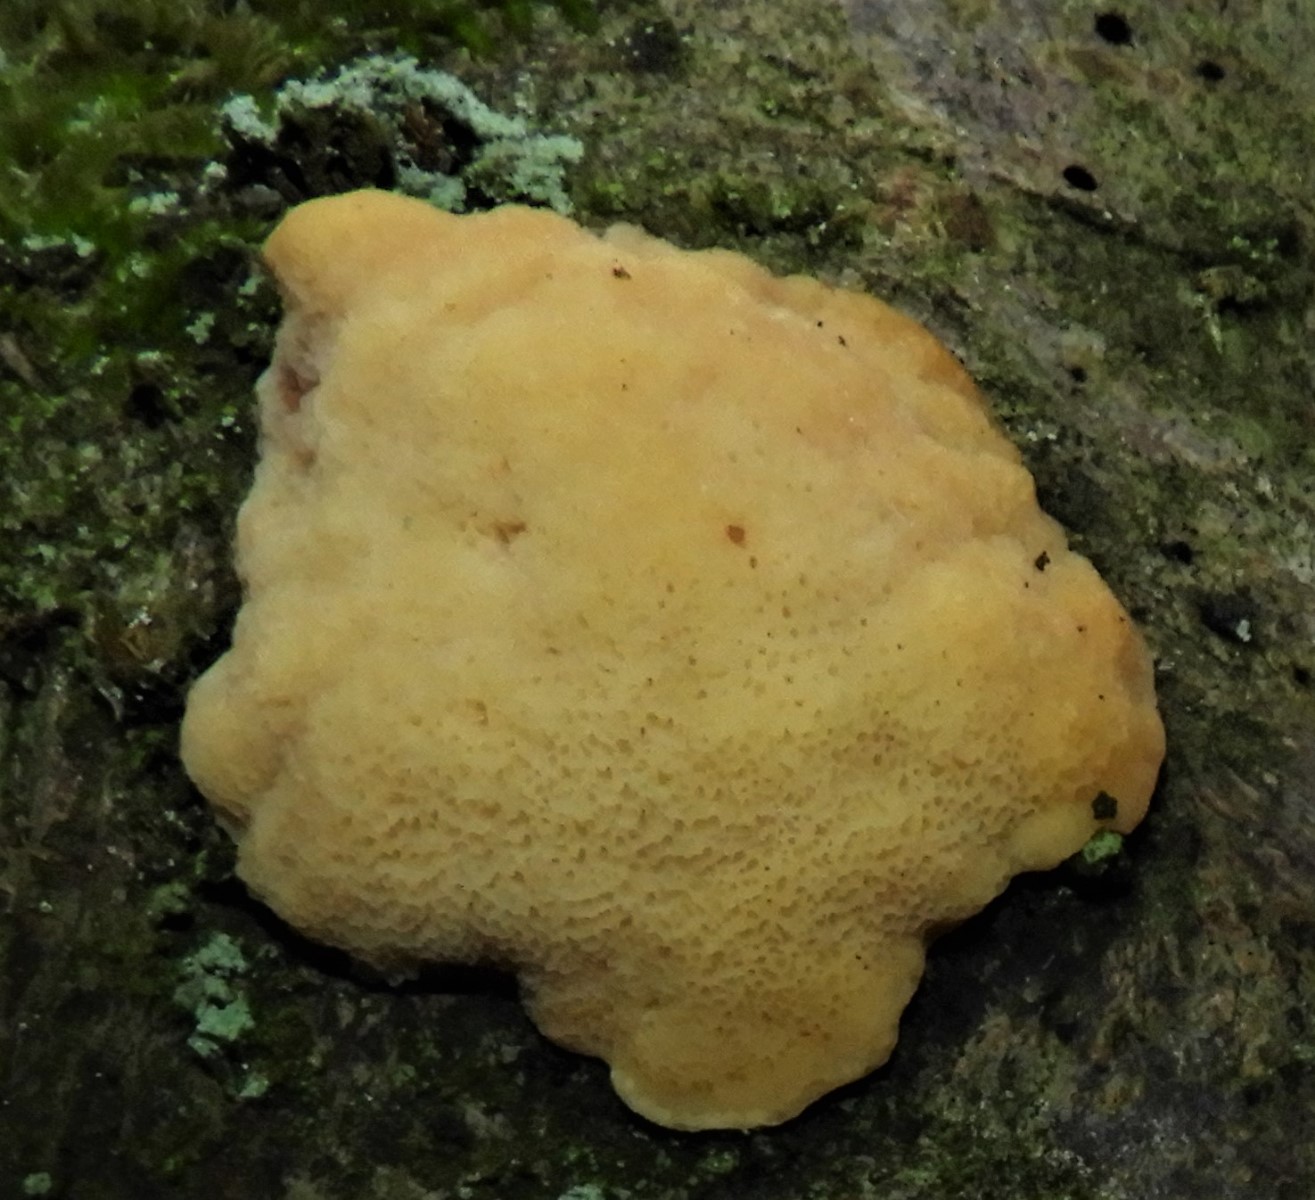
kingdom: Fungi
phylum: Basidiomycota
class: Agaricomycetes
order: Polyporales
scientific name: Polyporales
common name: poresvampordenen
